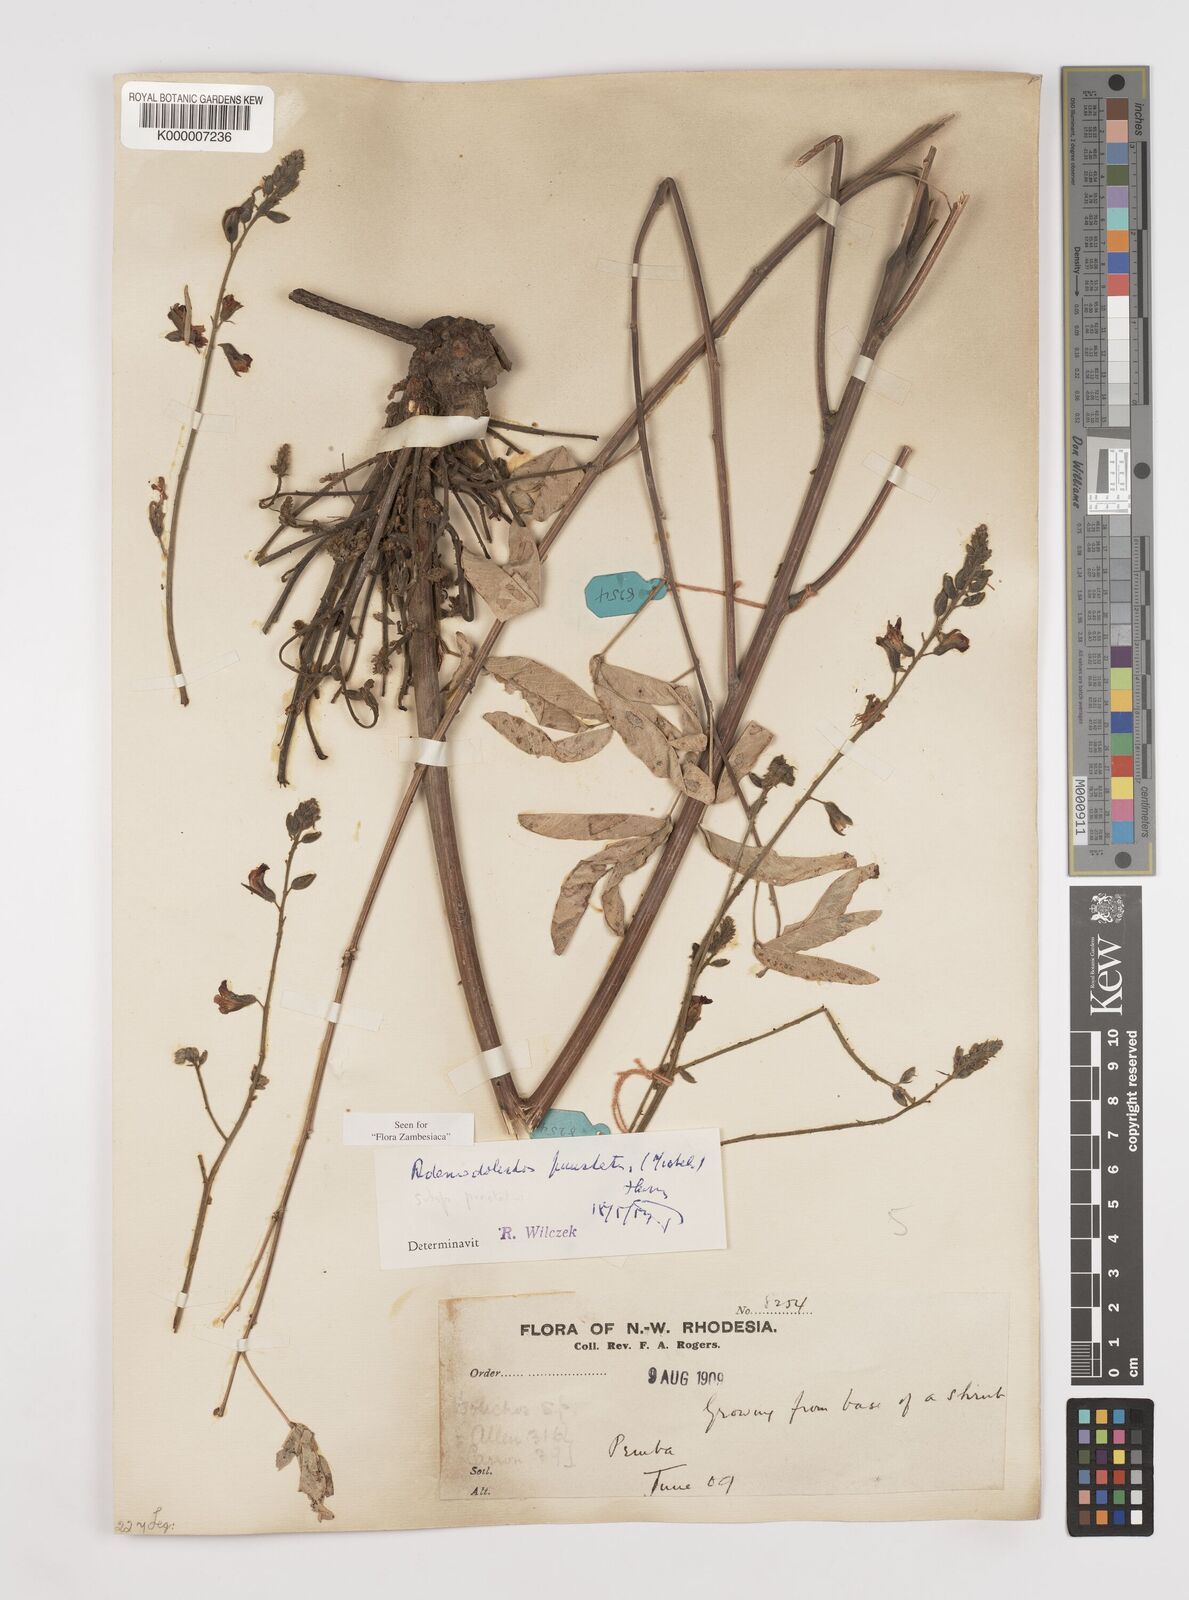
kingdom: Plantae
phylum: Tracheophyta
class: Magnoliopsida
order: Fabales
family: Fabaceae
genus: Adenodolichos
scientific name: Adenodolichos punctatus
